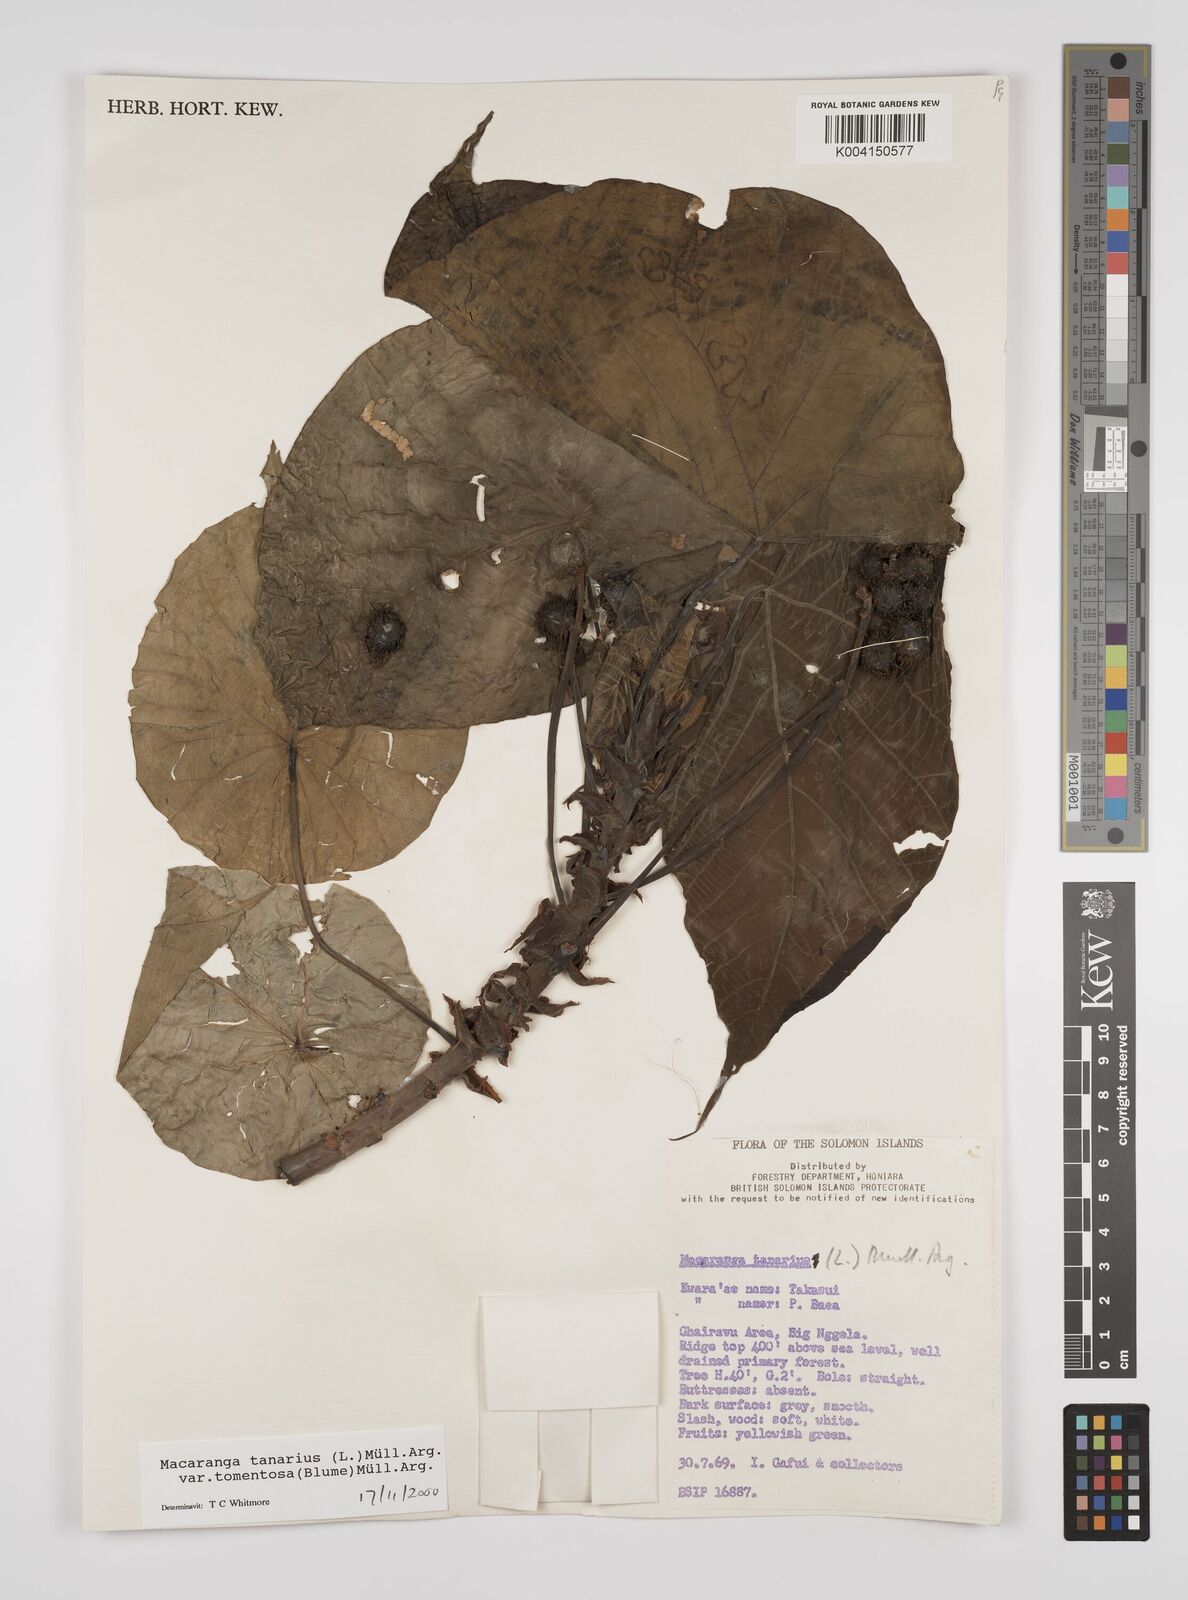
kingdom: Plantae
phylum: Tracheophyta
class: Magnoliopsida
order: Malpighiales
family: Euphorbiaceae
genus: Macaranga
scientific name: Macaranga tanarius
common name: Parasol leaf tree
